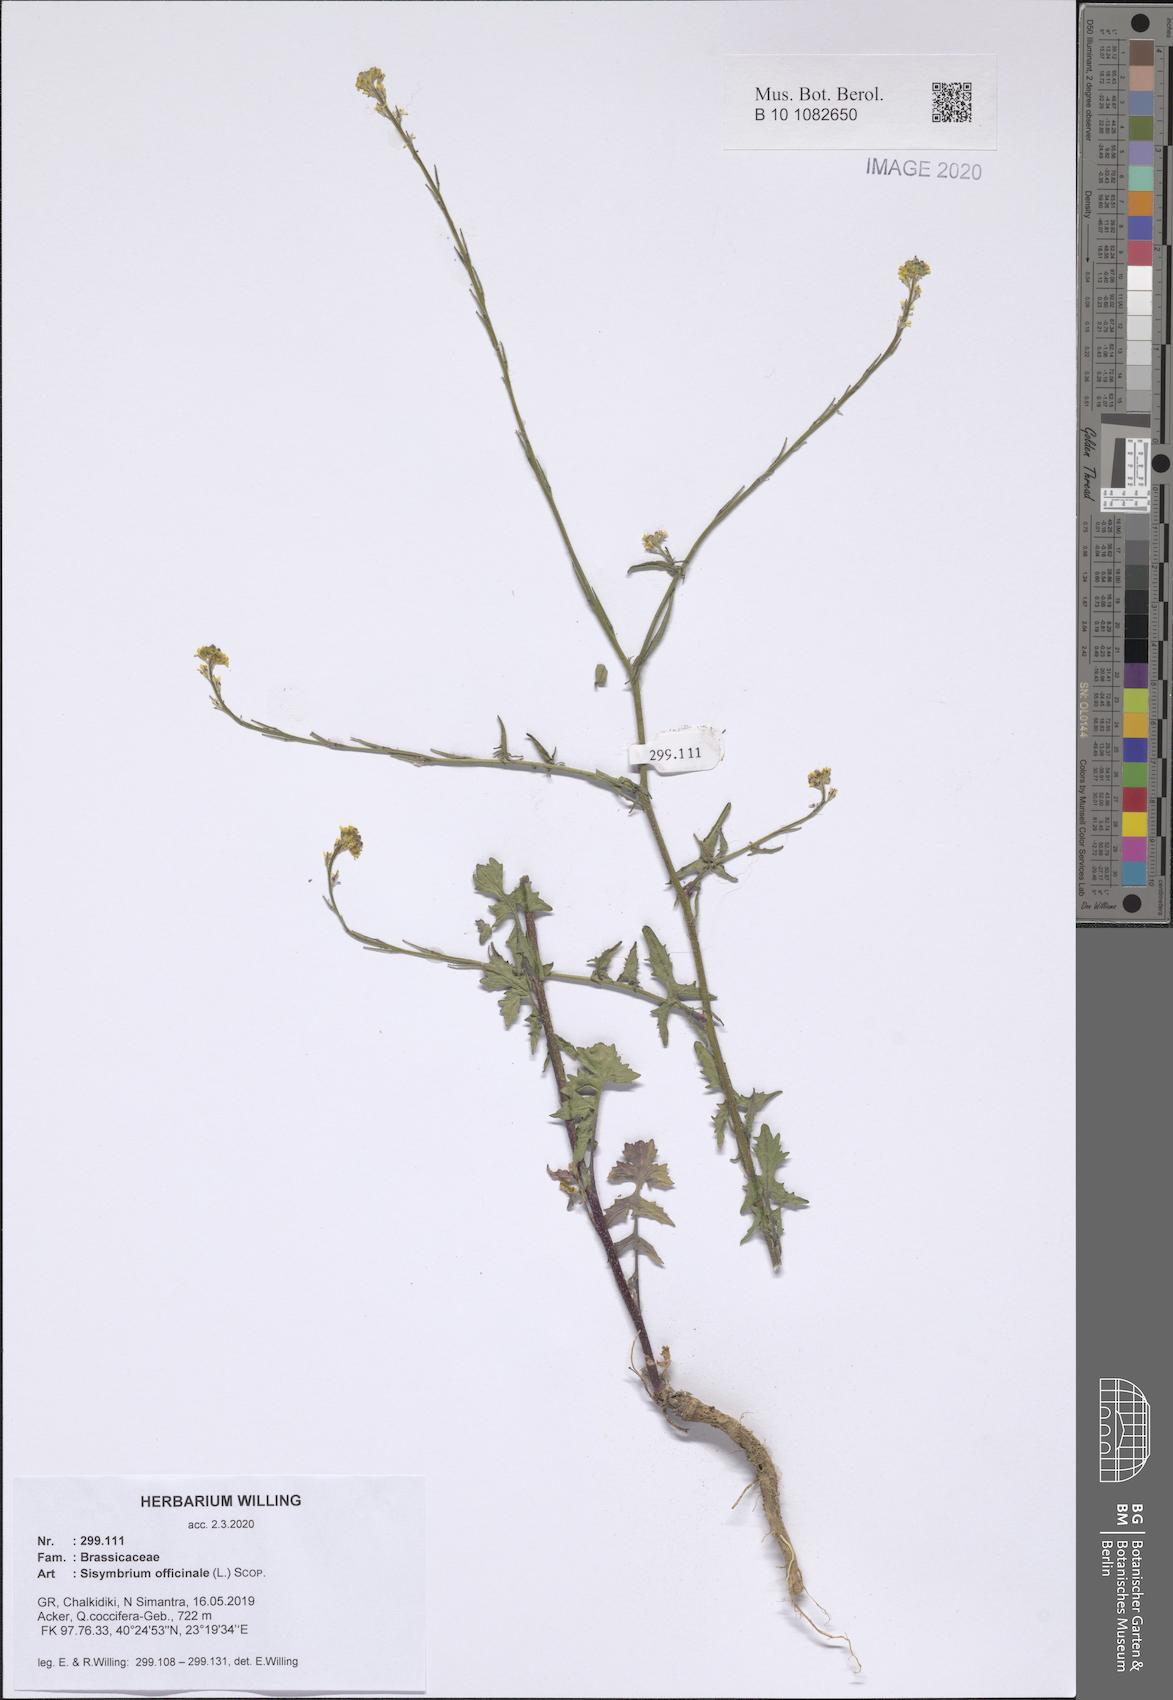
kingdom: Plantae
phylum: Tracheophyta
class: Magnoliopsida
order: Brassicales
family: Brassicaceae
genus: Sisymbrium
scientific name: Sisymbrium officinale
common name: Hedge mustard
